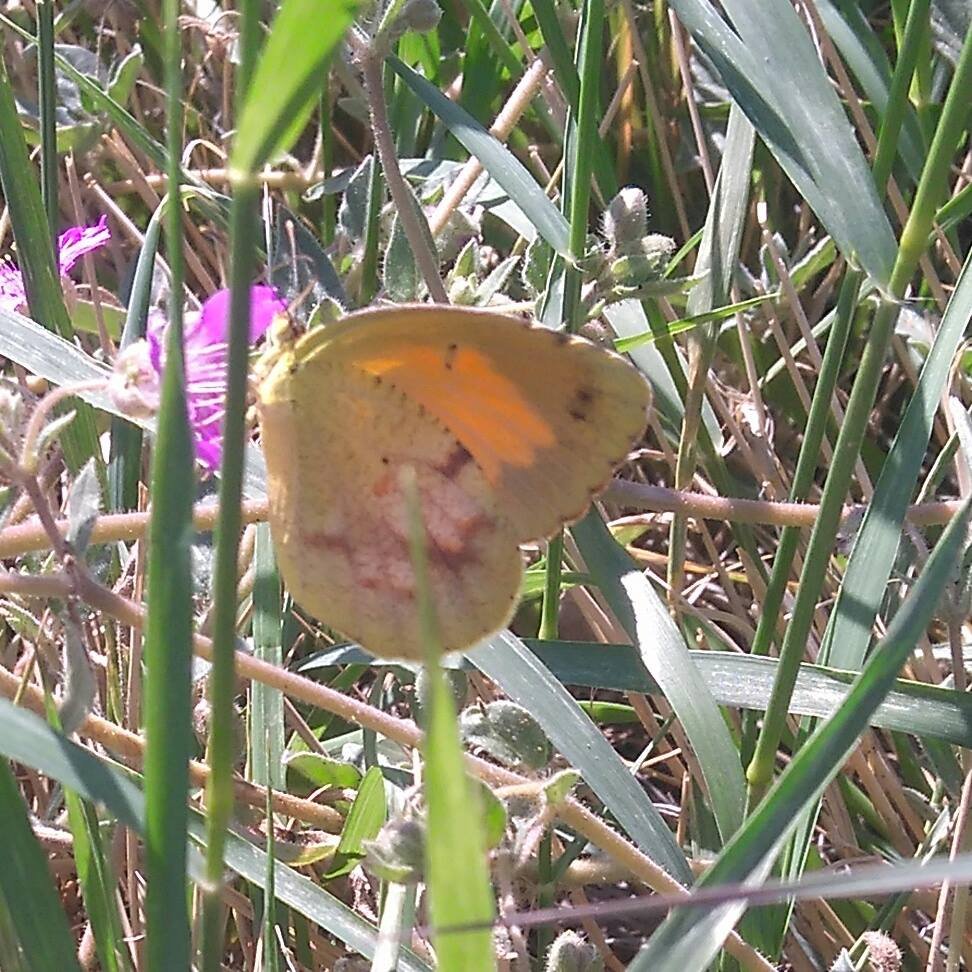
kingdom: Animalia
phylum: Arthropoda
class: Insecta
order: Lepidoptera
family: Pieridae
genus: Abaeis
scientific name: Abaeis nicippe
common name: Sleepy Orange
